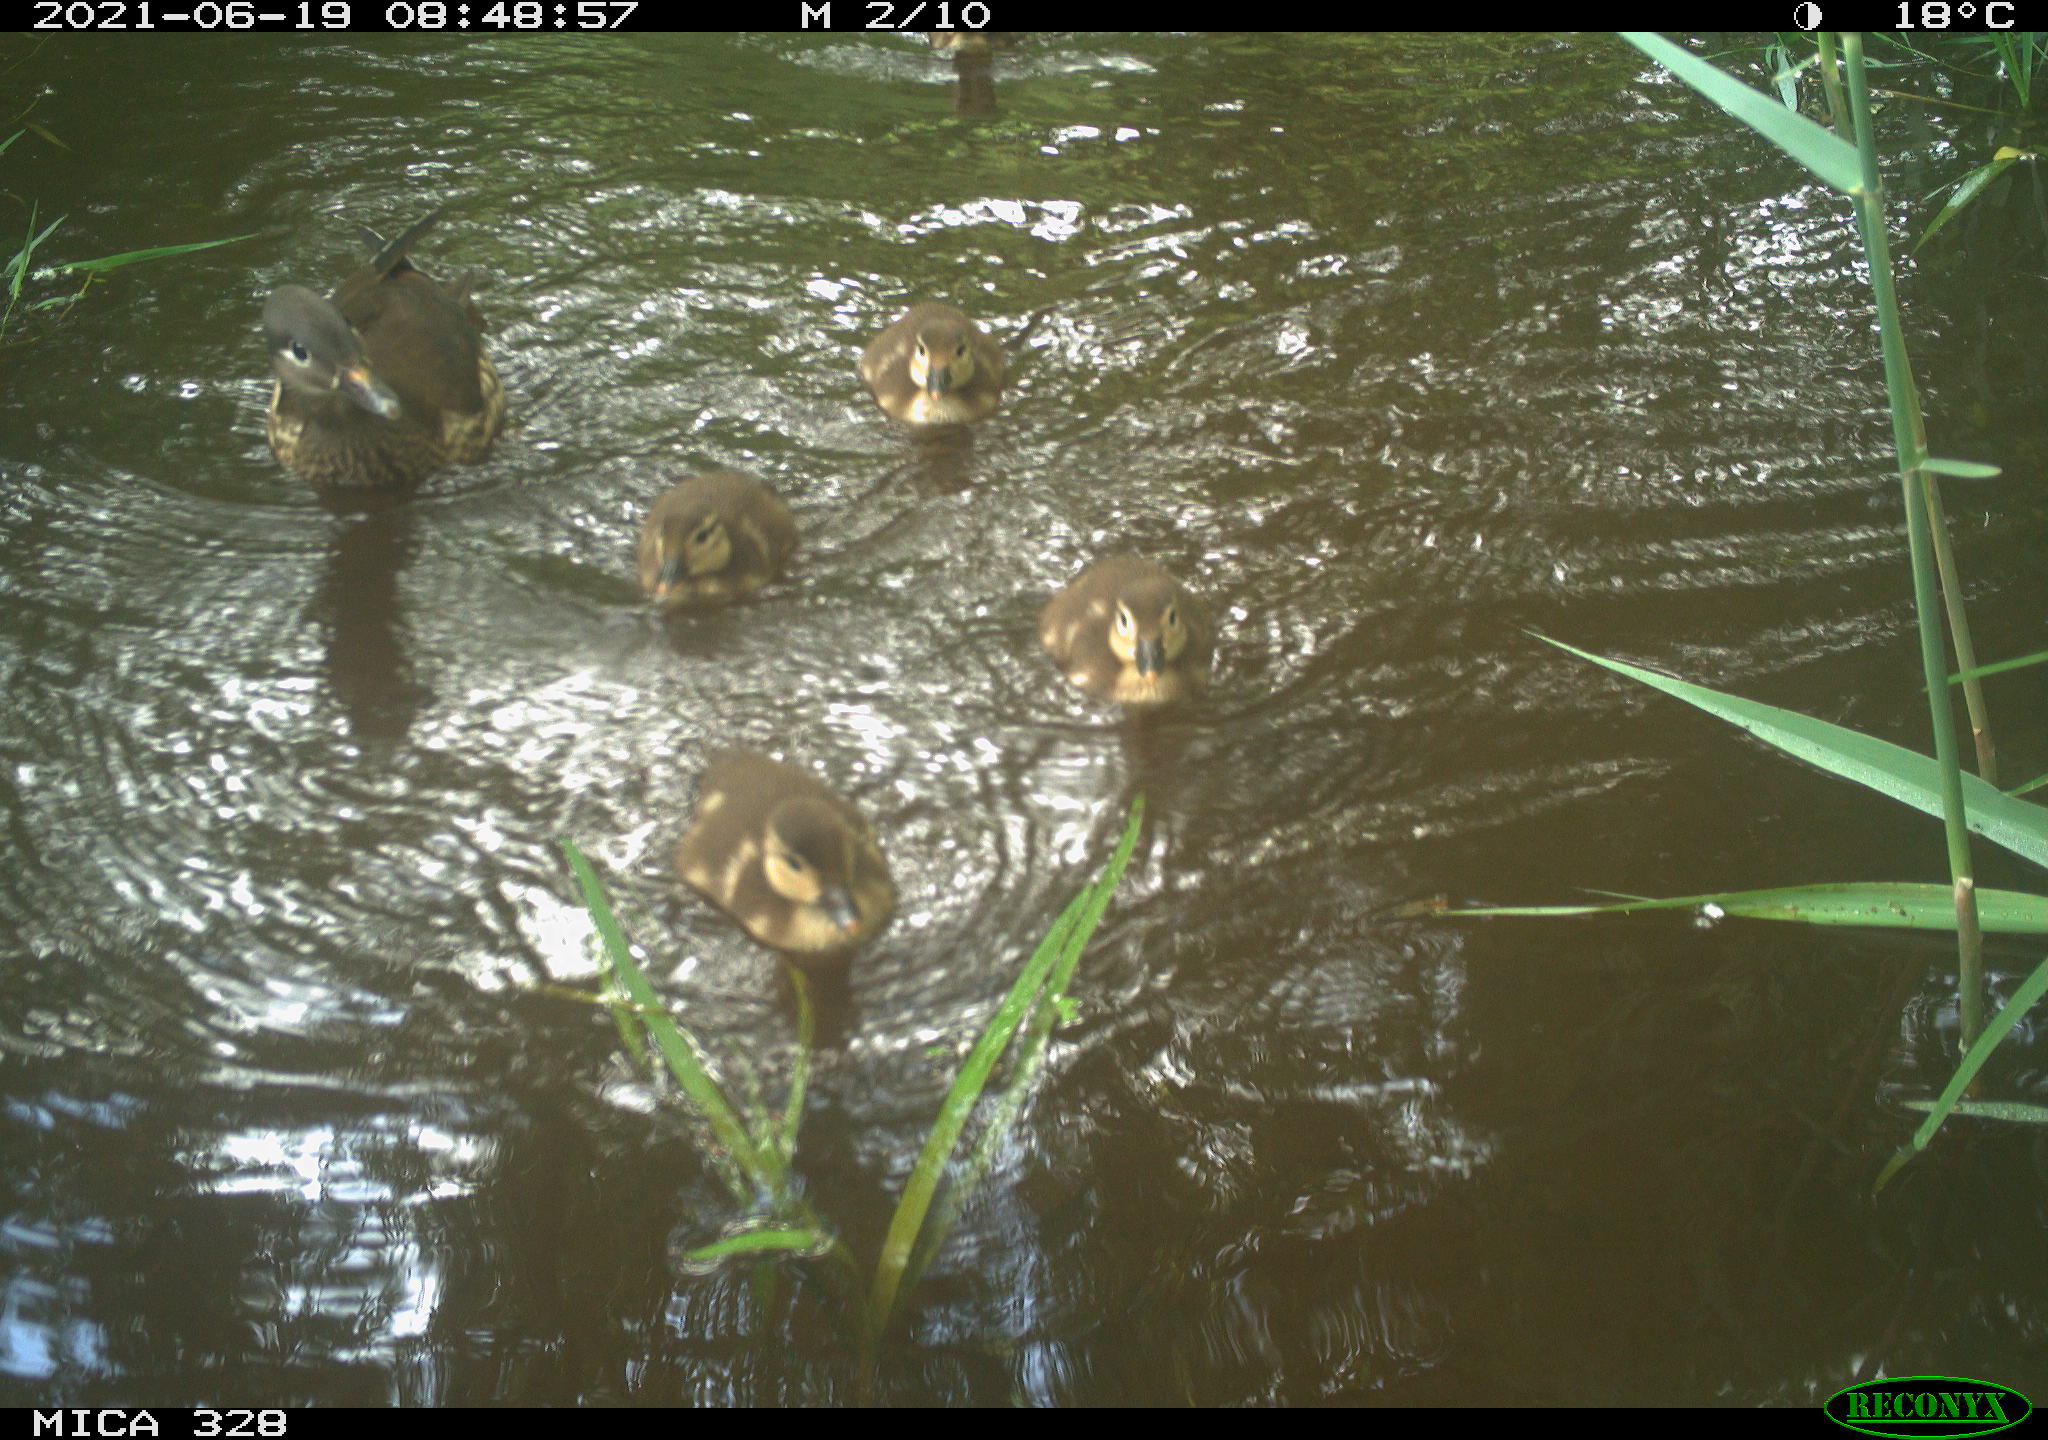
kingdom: Animalia
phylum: Chordata
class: Aves
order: Anseriformes
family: Anatidae
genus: Aix
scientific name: Aix galericulata
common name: Mandarin duck
